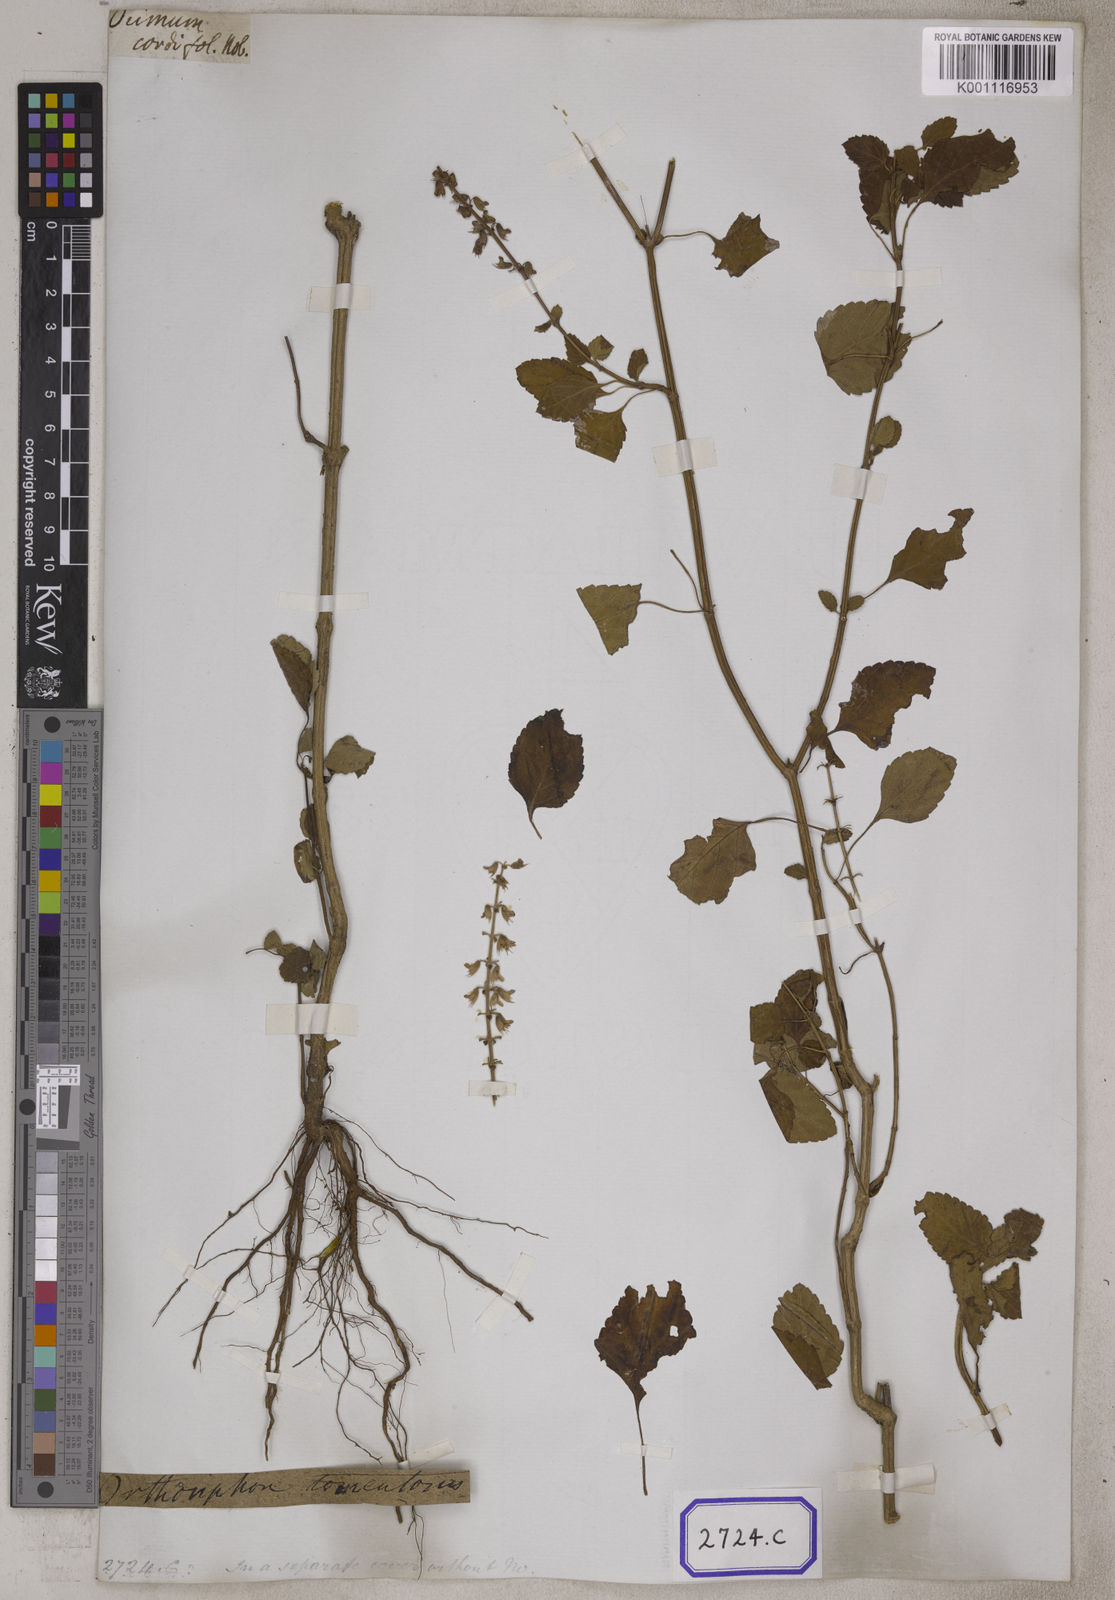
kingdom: Plantae
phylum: Tracheophyta
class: Magnoliopsida
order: Lamiales
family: Lamiaceae
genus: Orthosiphon
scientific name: Orthosiphon thymiflorus
